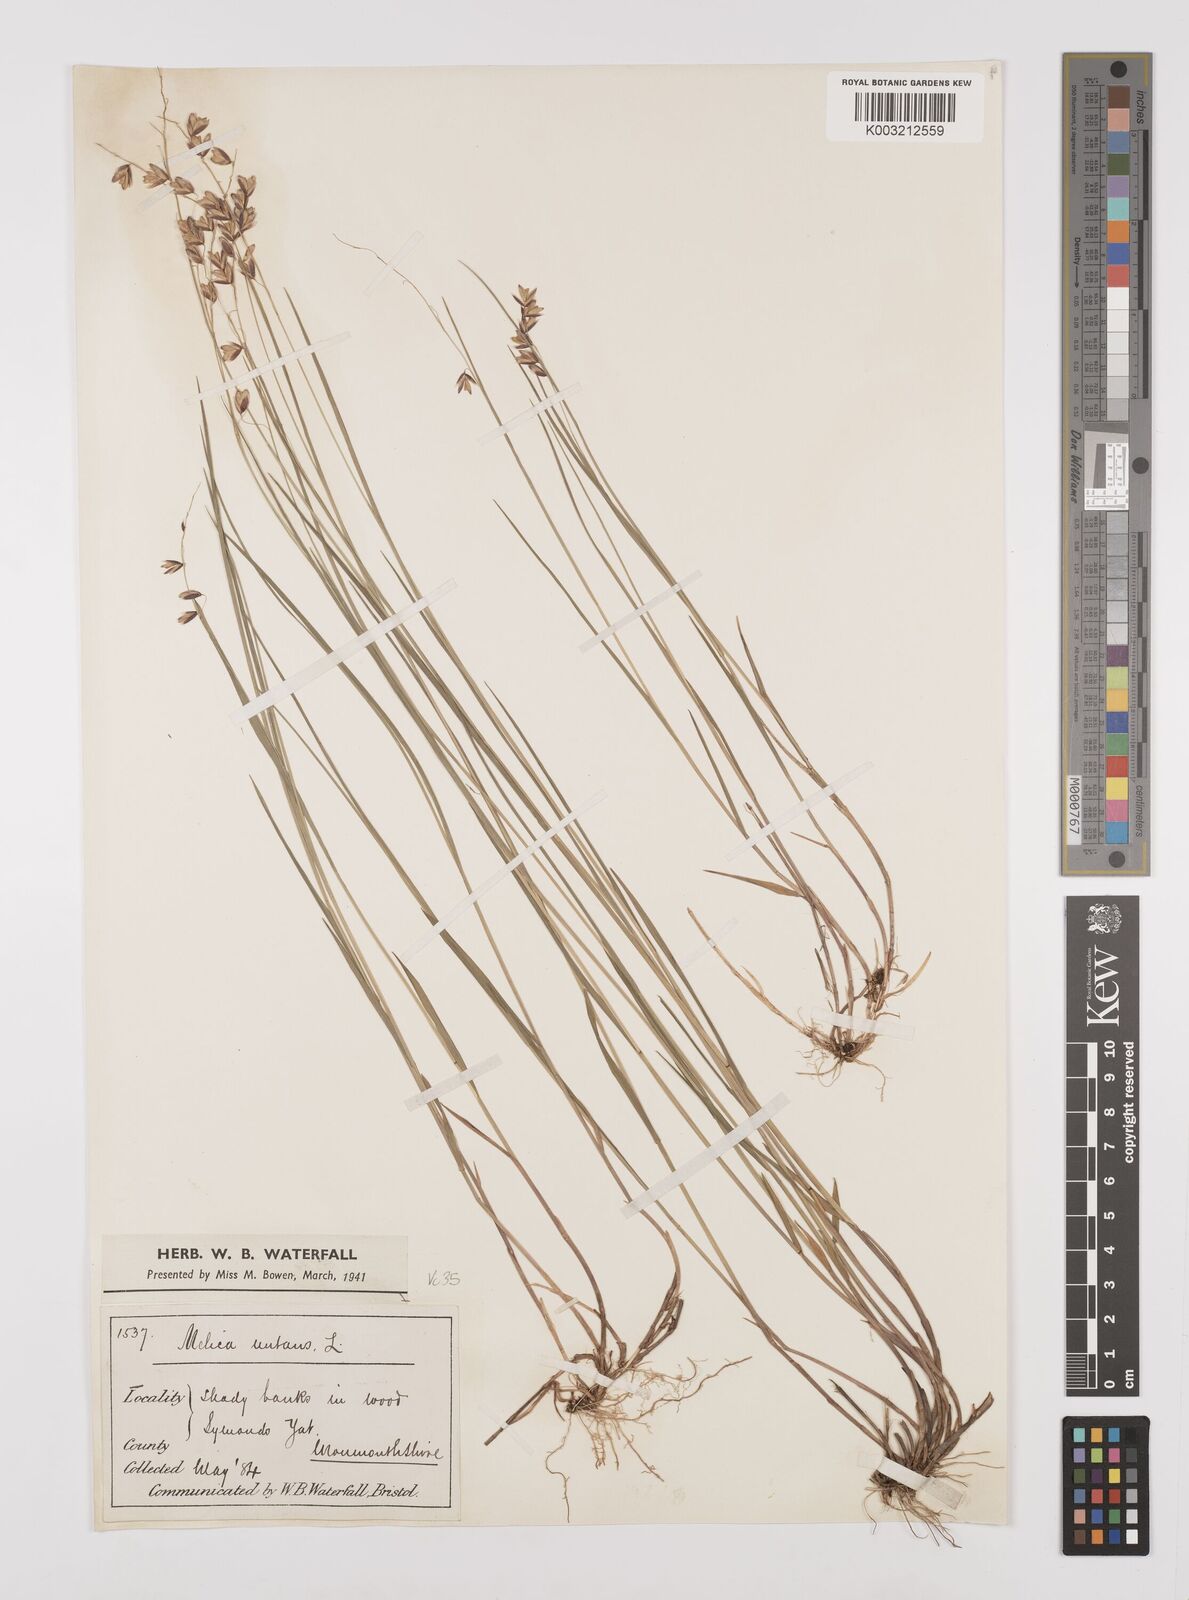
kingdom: Plantae
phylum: Tracheophyta
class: Liliopsida
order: Poales
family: Poaceae
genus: Melica
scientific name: Melica
